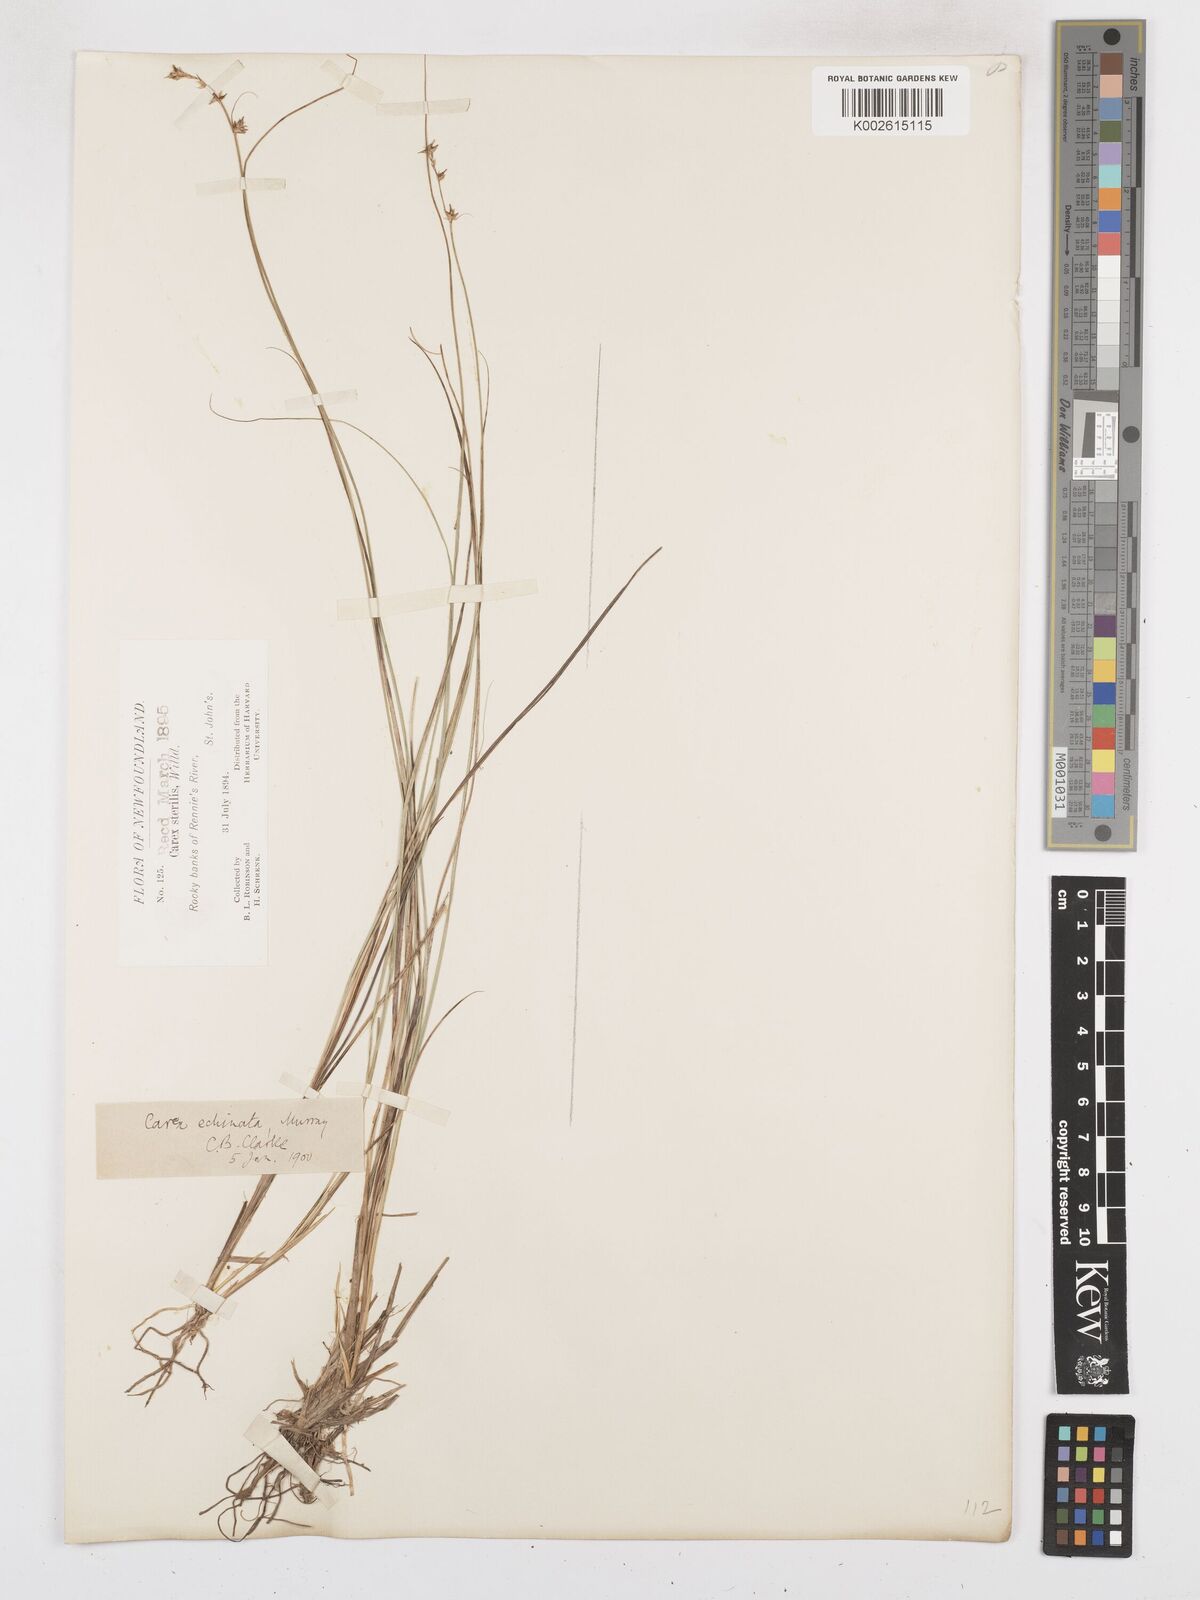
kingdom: Plantae
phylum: Tracheophyta
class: Liliopsida
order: Poales
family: Cyperaceae
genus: Carex
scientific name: Carex echinata
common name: Star sedge
